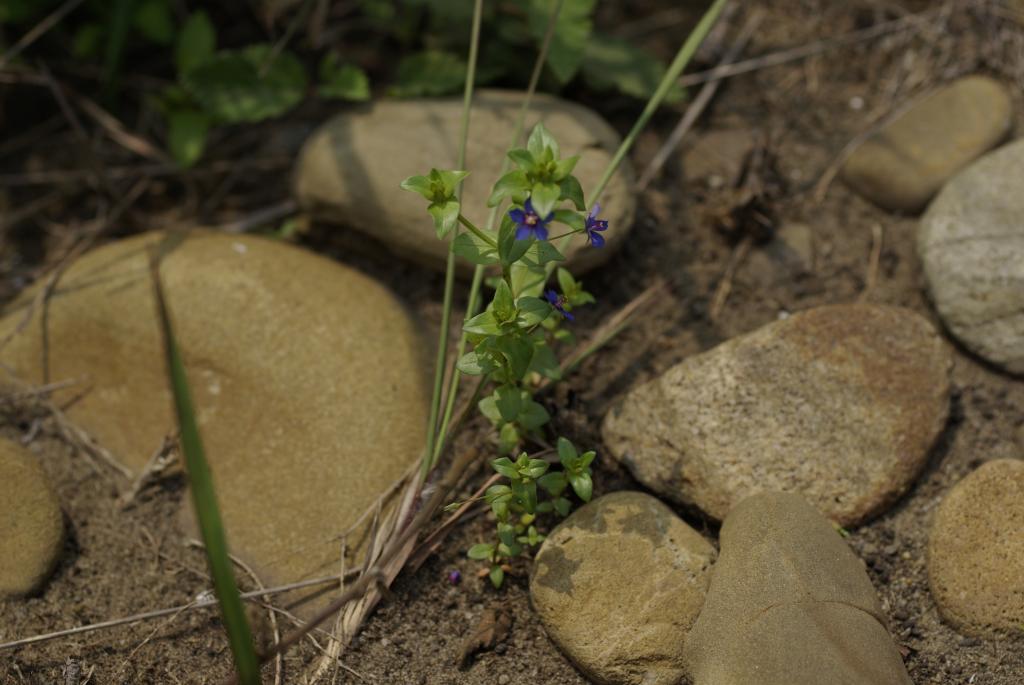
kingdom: Plantae
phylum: Tracheophyta
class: Magnoliopsida
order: Ericales
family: Primulaceae
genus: Lysimachia
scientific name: Lysimachia arvensis
